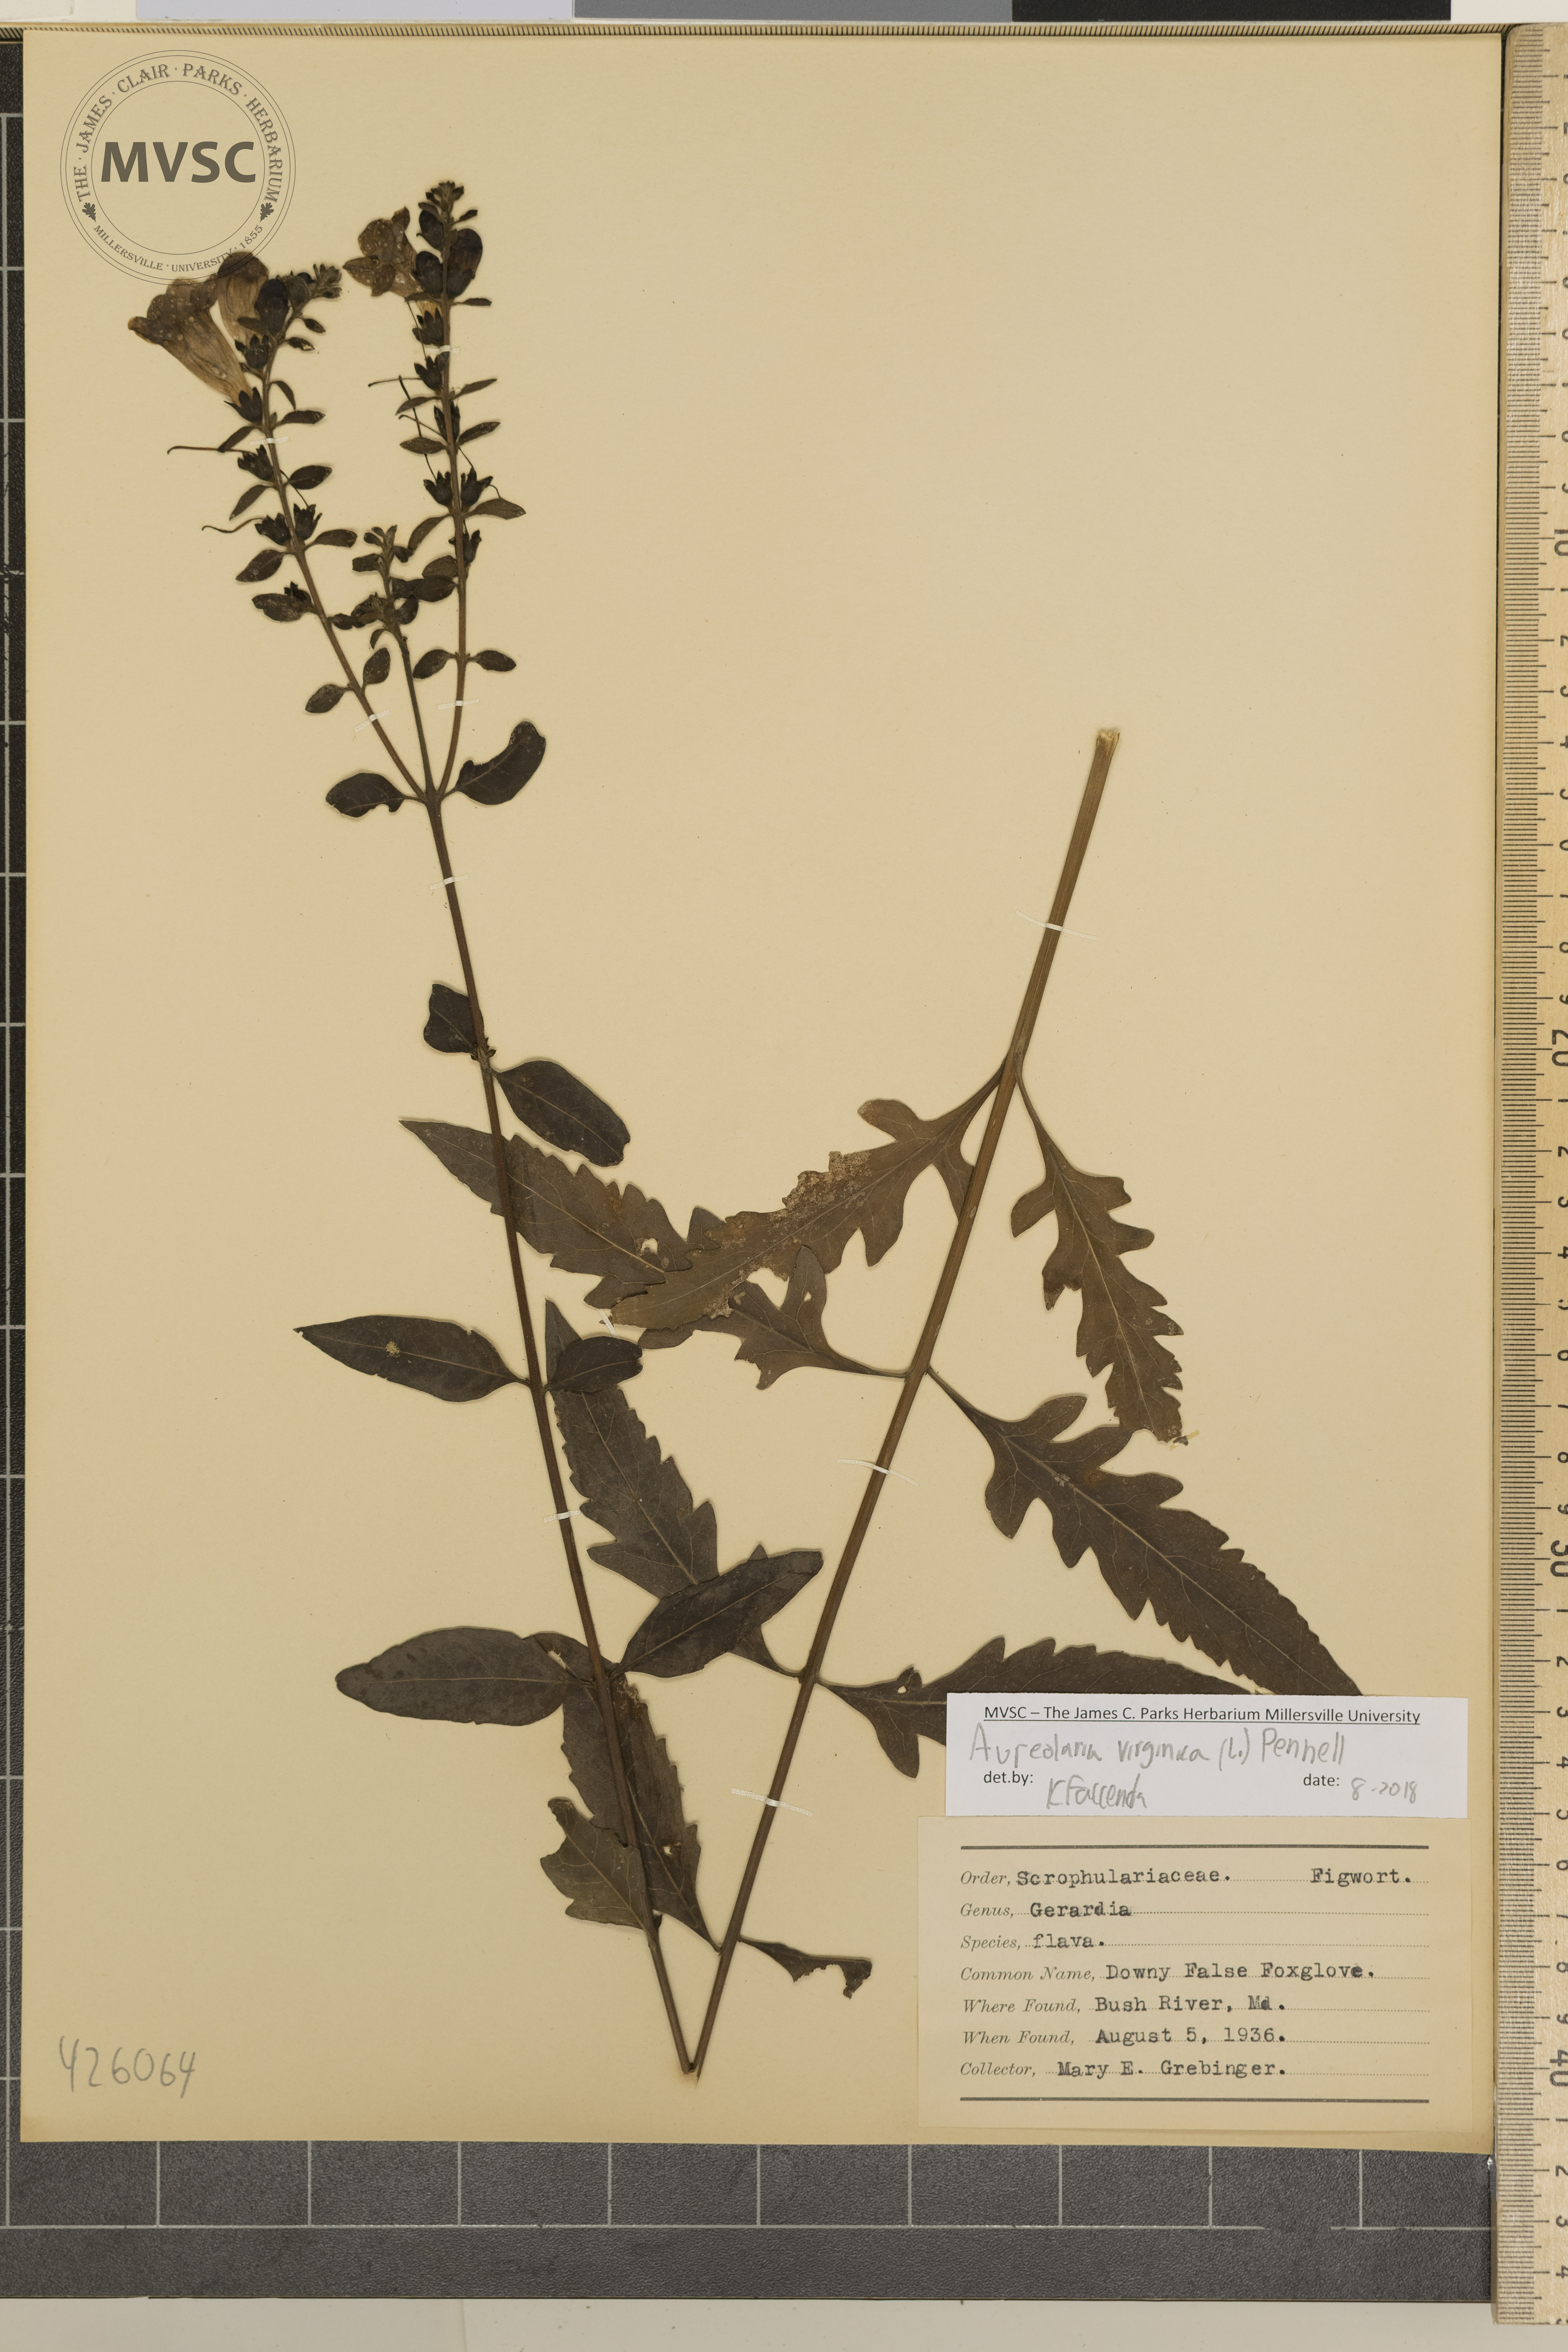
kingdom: Plantae
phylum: Tracheophyta
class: Magnoliopsida
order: Lamiales
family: Orobanchaceae
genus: Aureolaria
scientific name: Aureolaria virginica
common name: Downy false foxglove
